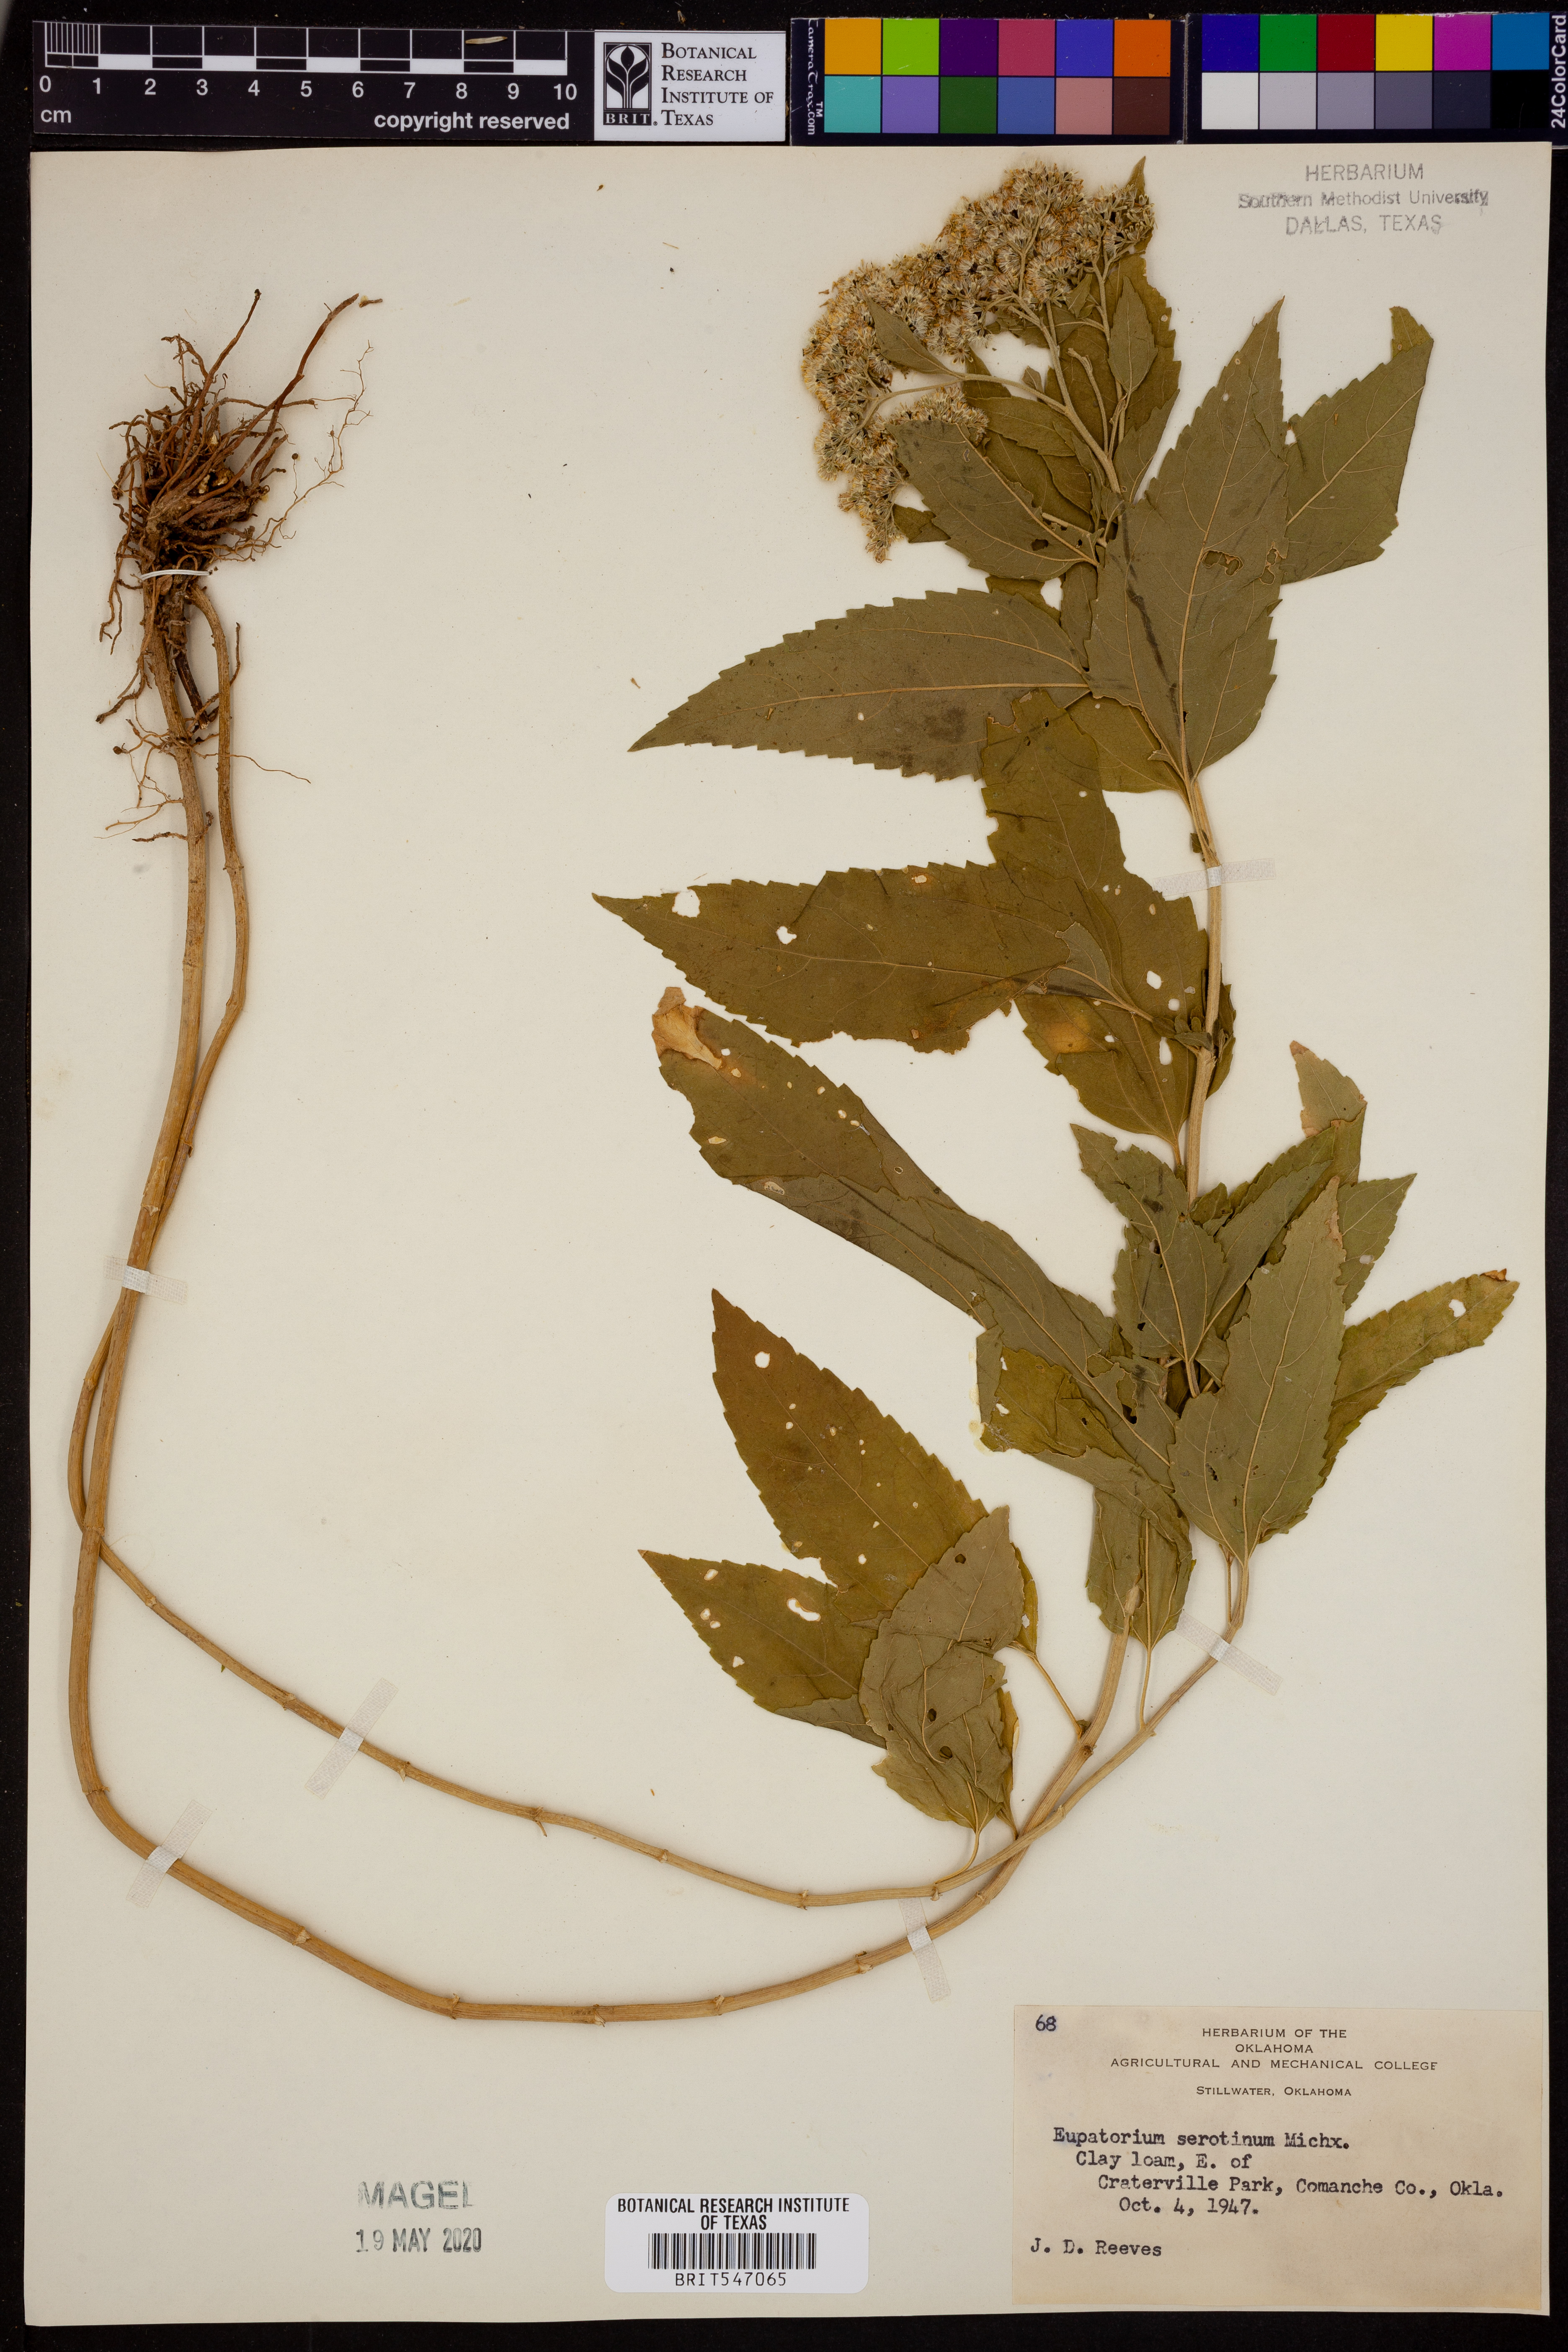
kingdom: Plantae
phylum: Tracheophyta
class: Magnoliopsida
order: Asterales
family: Asteraceae
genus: Eupatorium
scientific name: Eupatorium serotinum
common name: Late boneset
